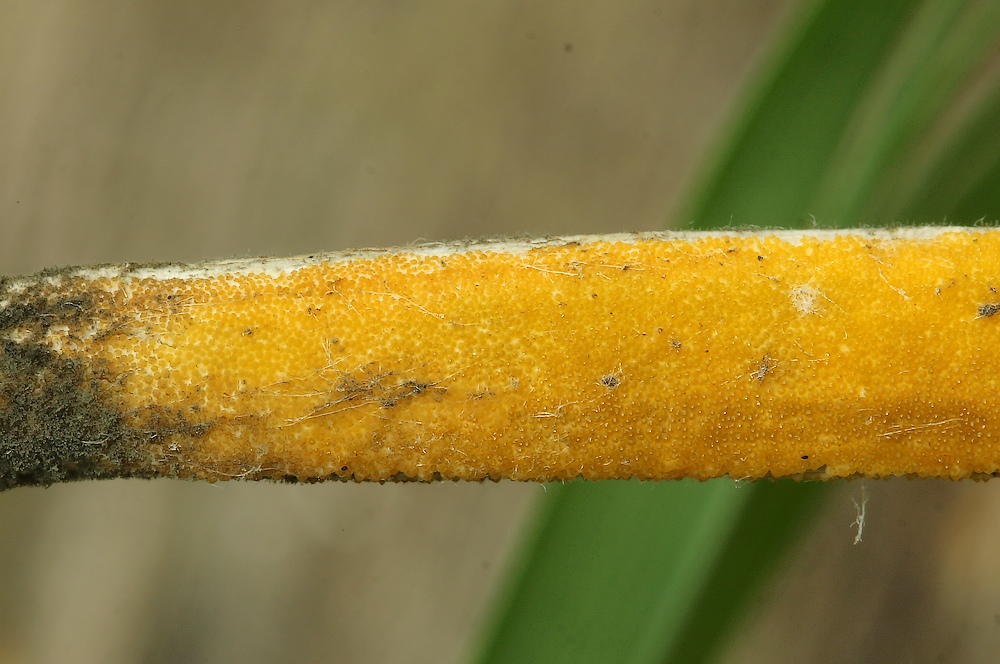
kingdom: Fungi
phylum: Ascomycota
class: Sordariomycetes
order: Hypocreales
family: Clavicipitaceae
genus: Epichloe
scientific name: Epichloe
